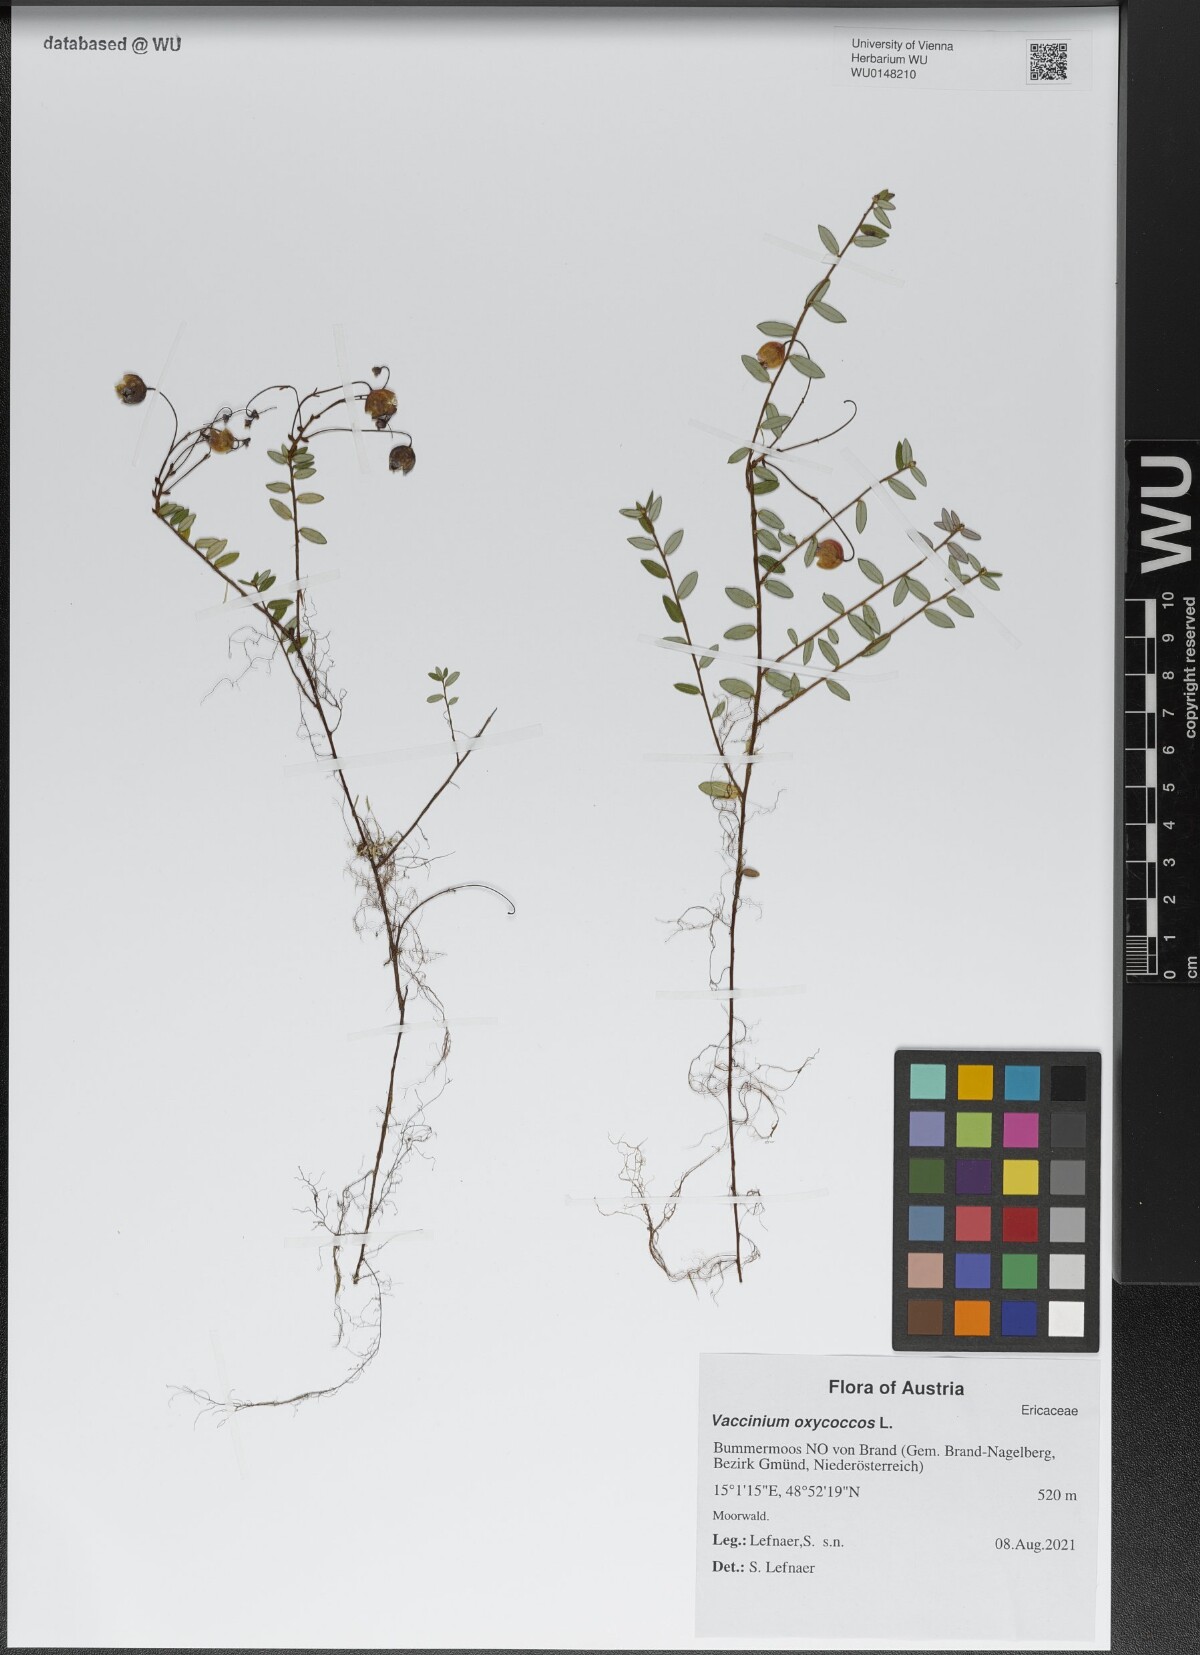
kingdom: Plantae
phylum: Tracheophyta
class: Magnoliopsida
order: Ericales
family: Ericaceae
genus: Vaccinium
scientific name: Vaccinium oxycoccos
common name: Cranberry
